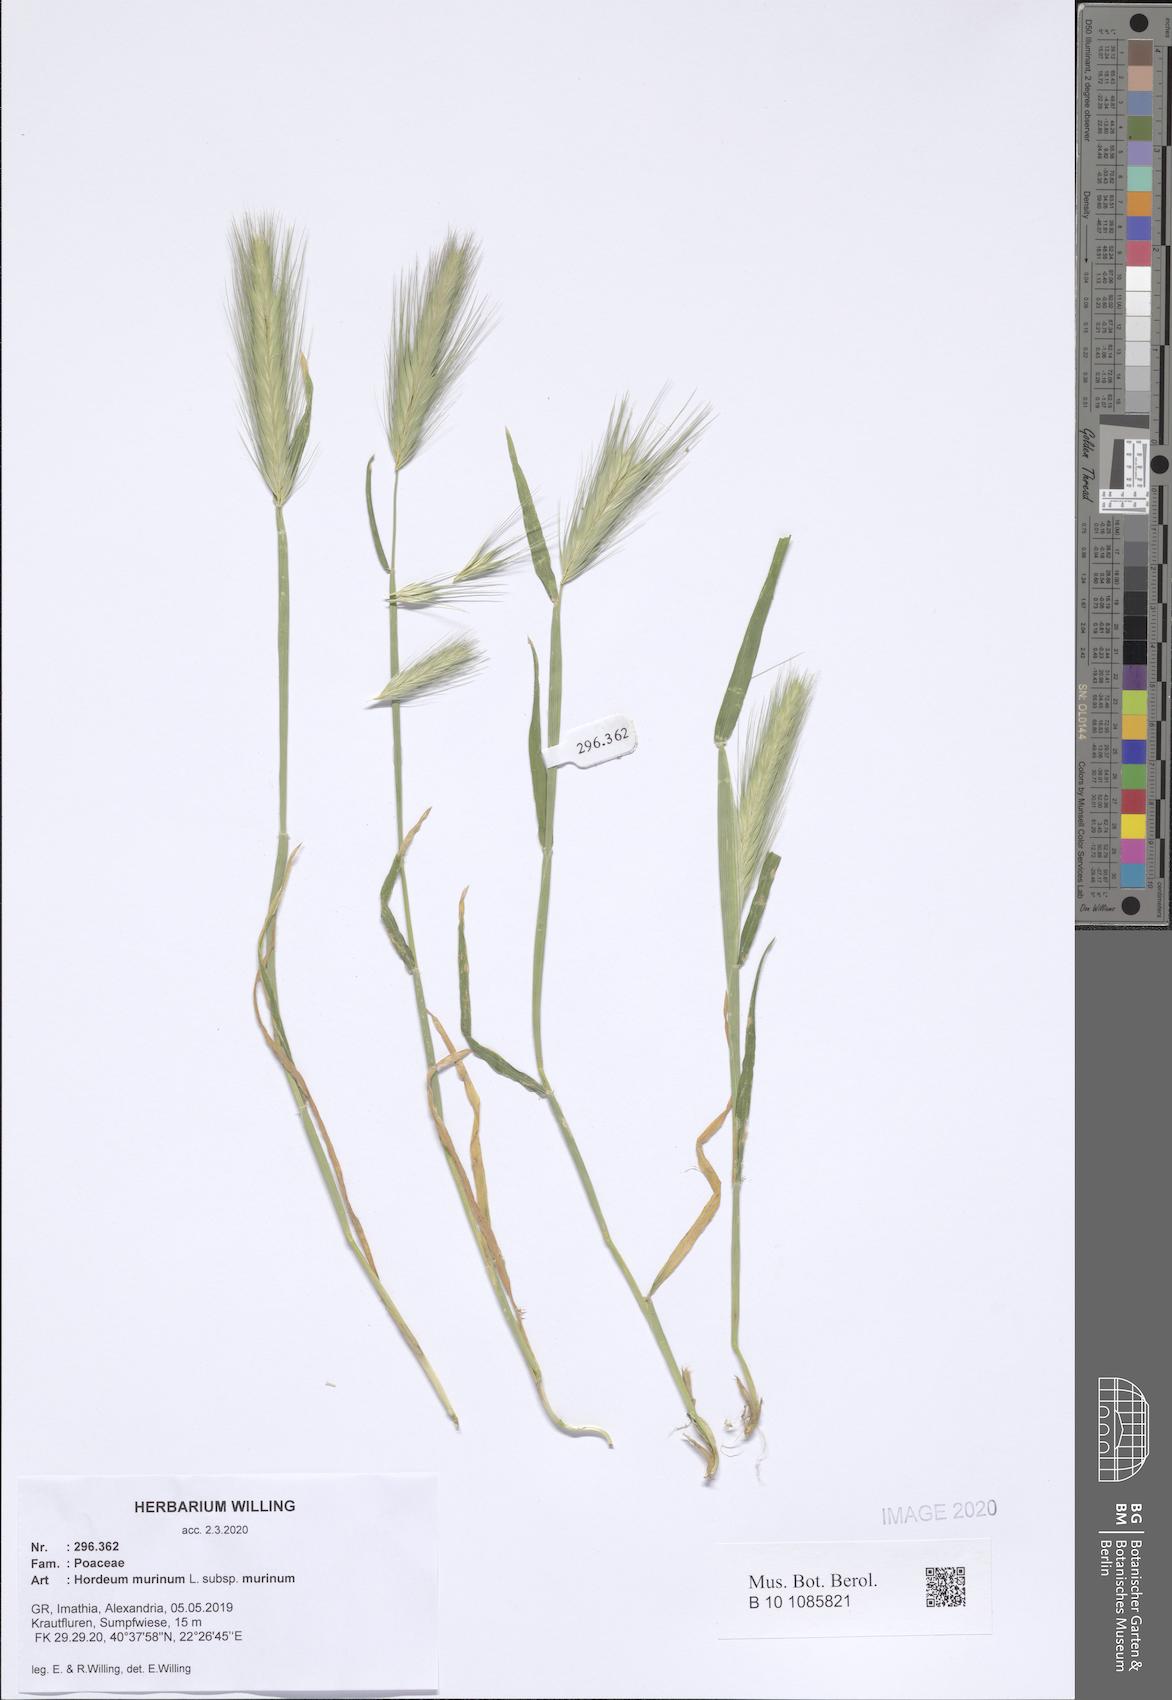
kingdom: Plantae
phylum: Tracheophyta
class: Liliopsida
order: Poales
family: Poaceae
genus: Hordeum
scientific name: Hordeum murinum
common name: Wall barley
